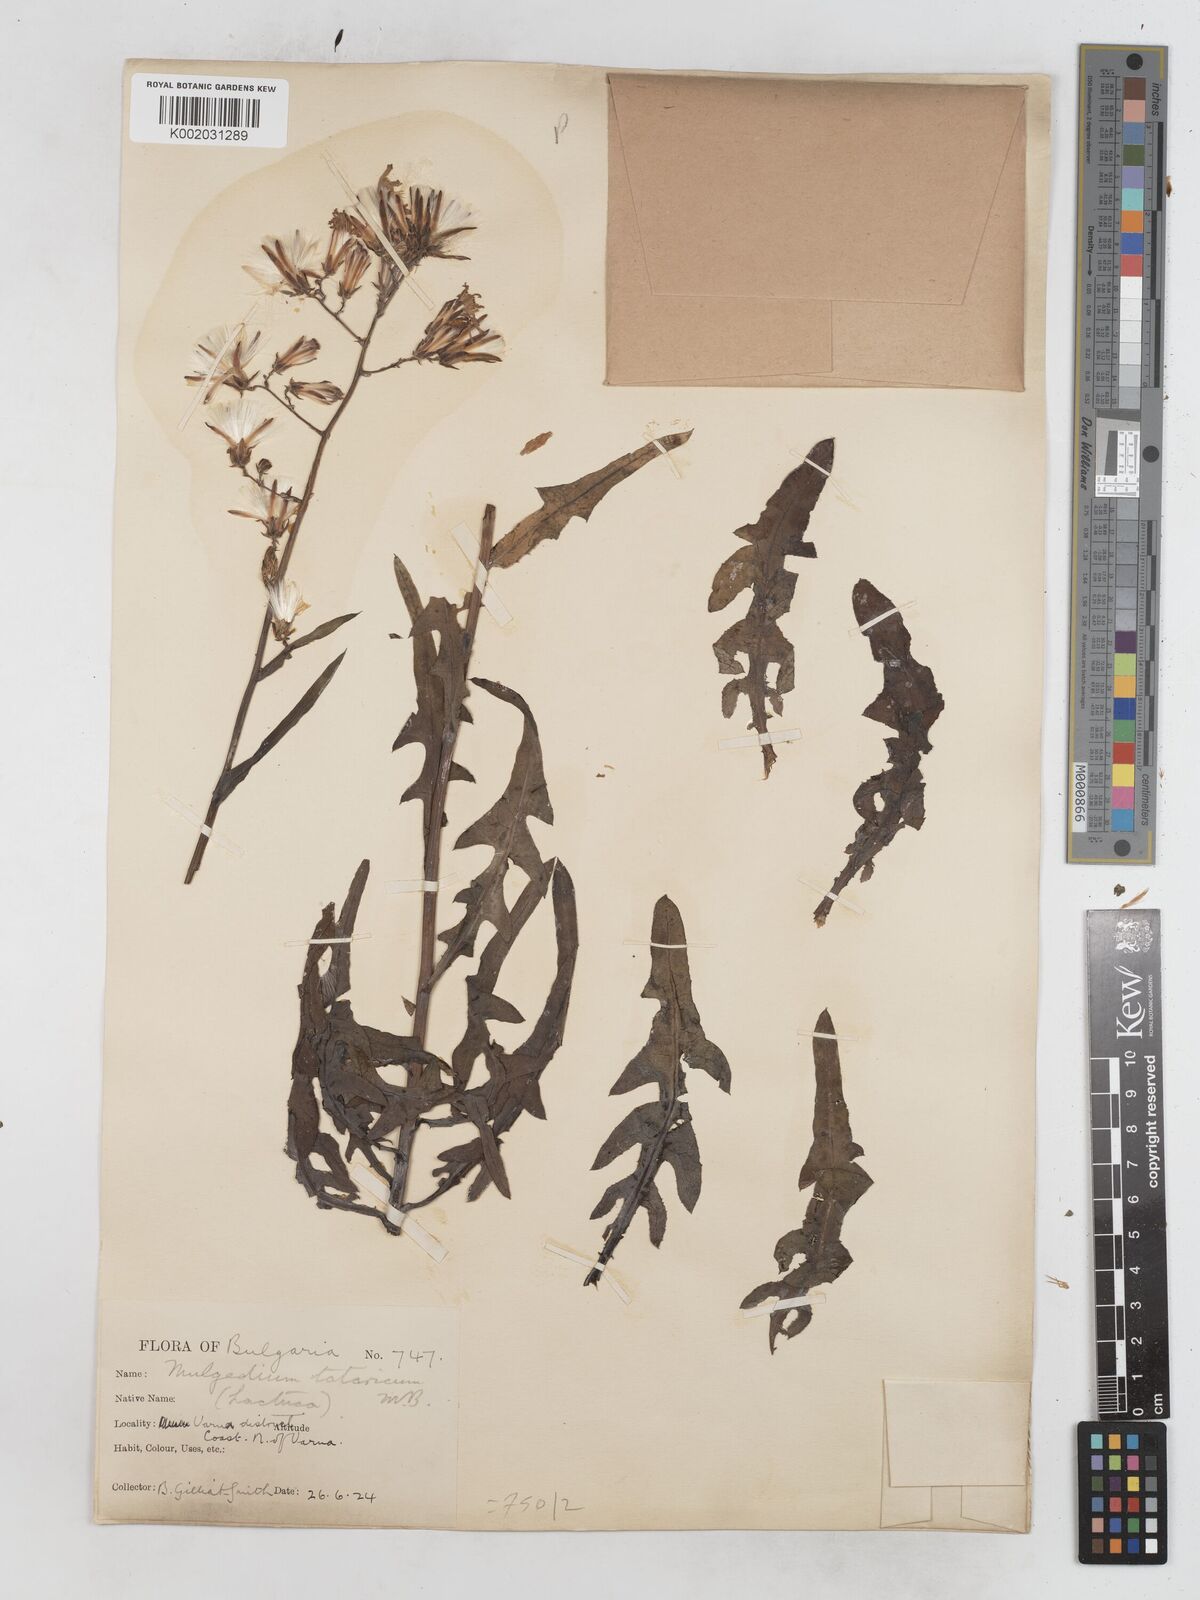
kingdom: Plantae
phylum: Tracheophyta
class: Magnoliopsida
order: Asterales
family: Asteraceae
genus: Lactuca
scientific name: Lactuca tatarica
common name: Blue lettuce
